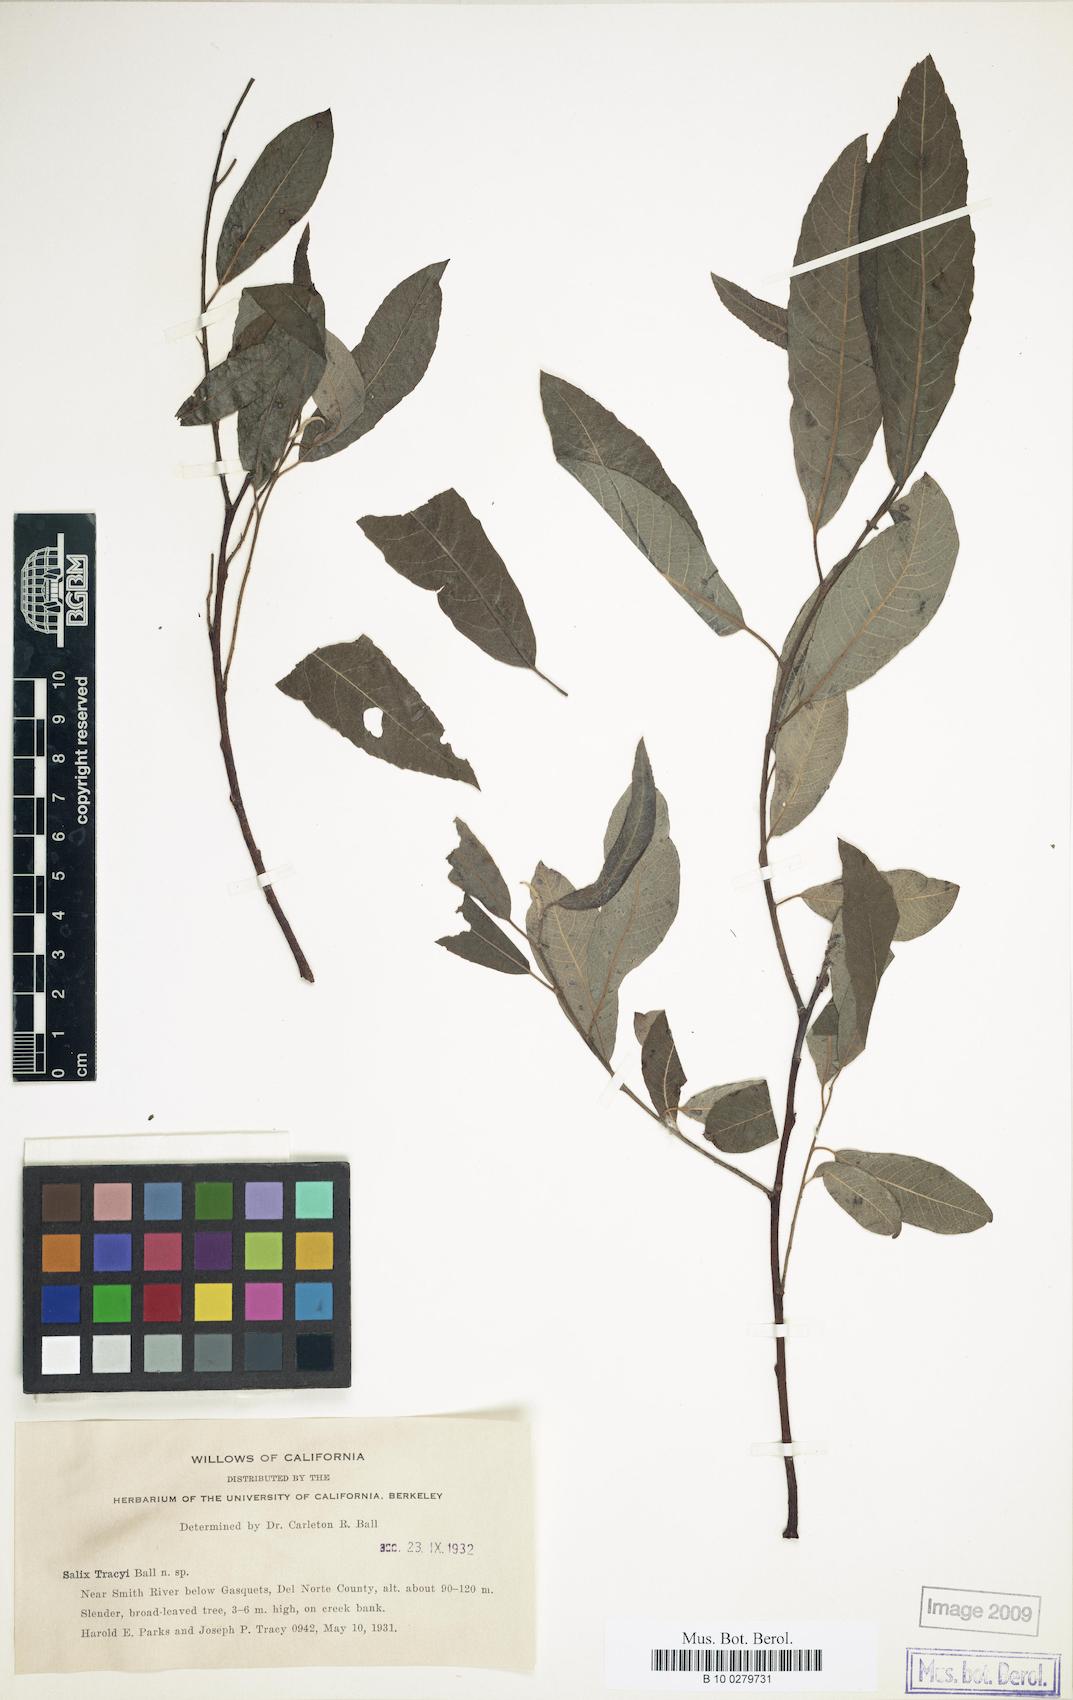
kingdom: Plantae
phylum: Tracheophyta
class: Magnoliopsida
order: Malpighiales
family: Salicaceae
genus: Salix
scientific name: Salix tracyi
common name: Tracy’s willow
